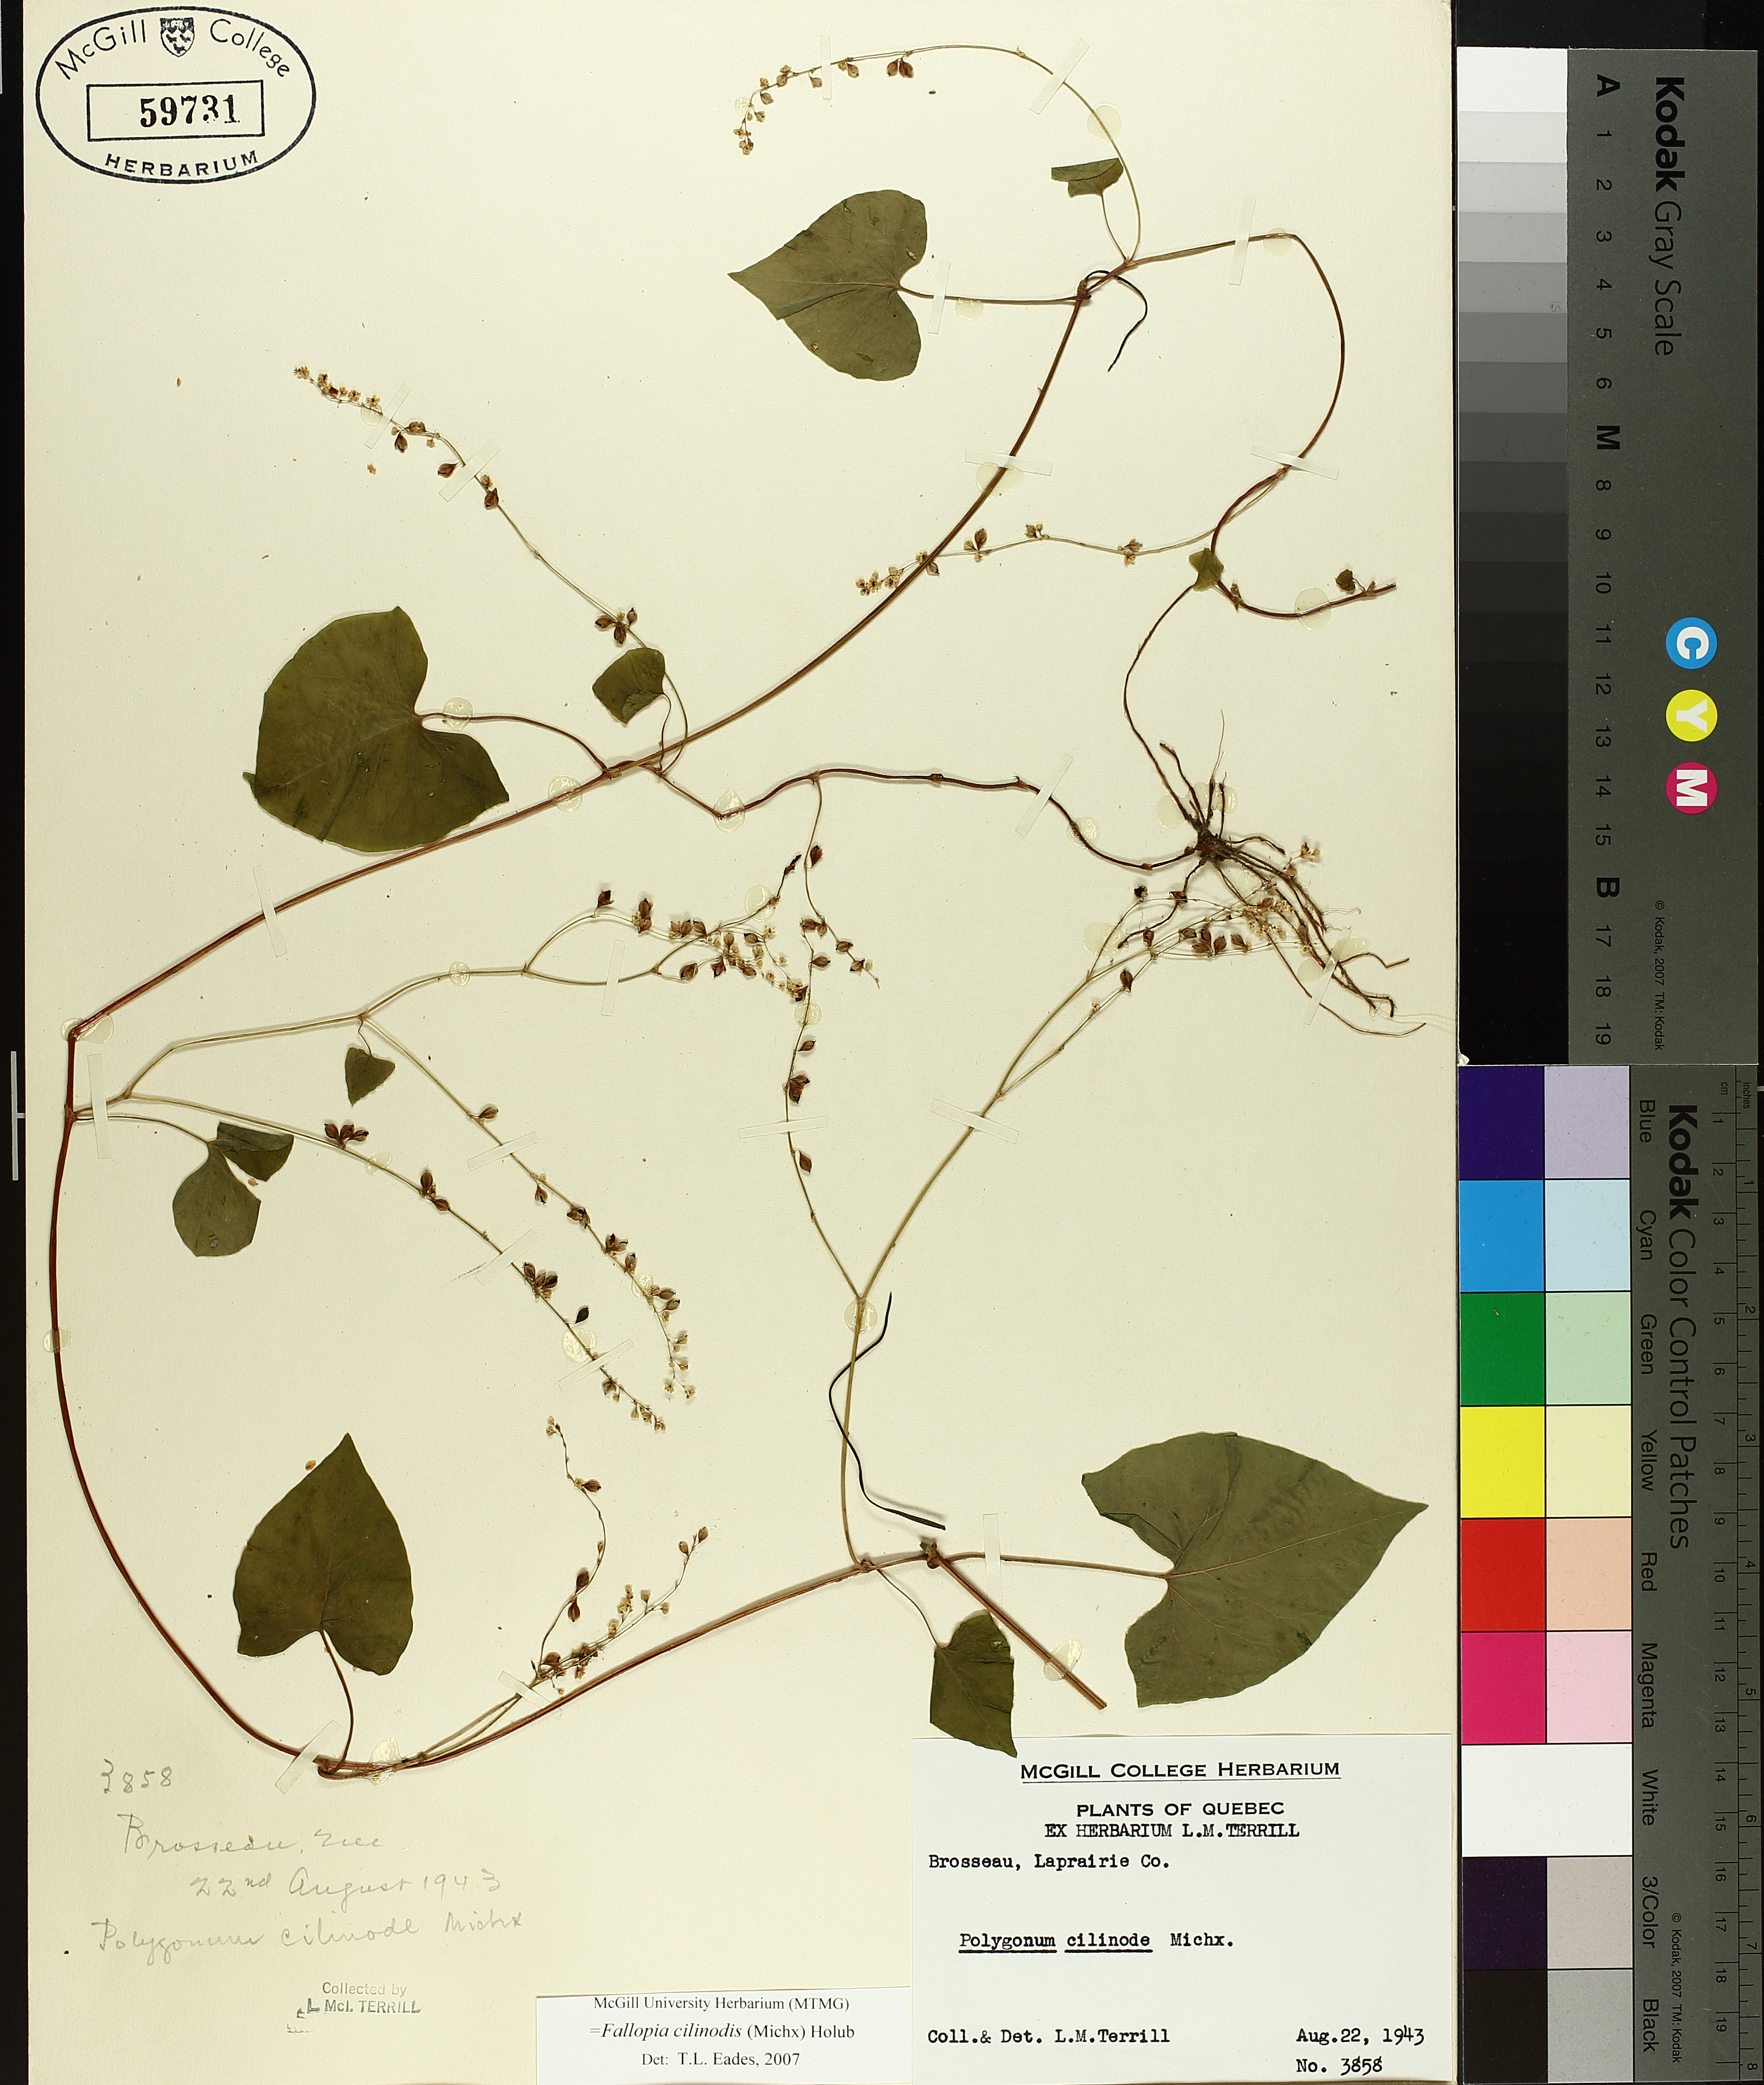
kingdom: Plantae
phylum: Tracheophyta
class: Magnoliopsida
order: Caryophyllales
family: Polygonaceae
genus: Parogonum
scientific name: Parogonum ciliinode
